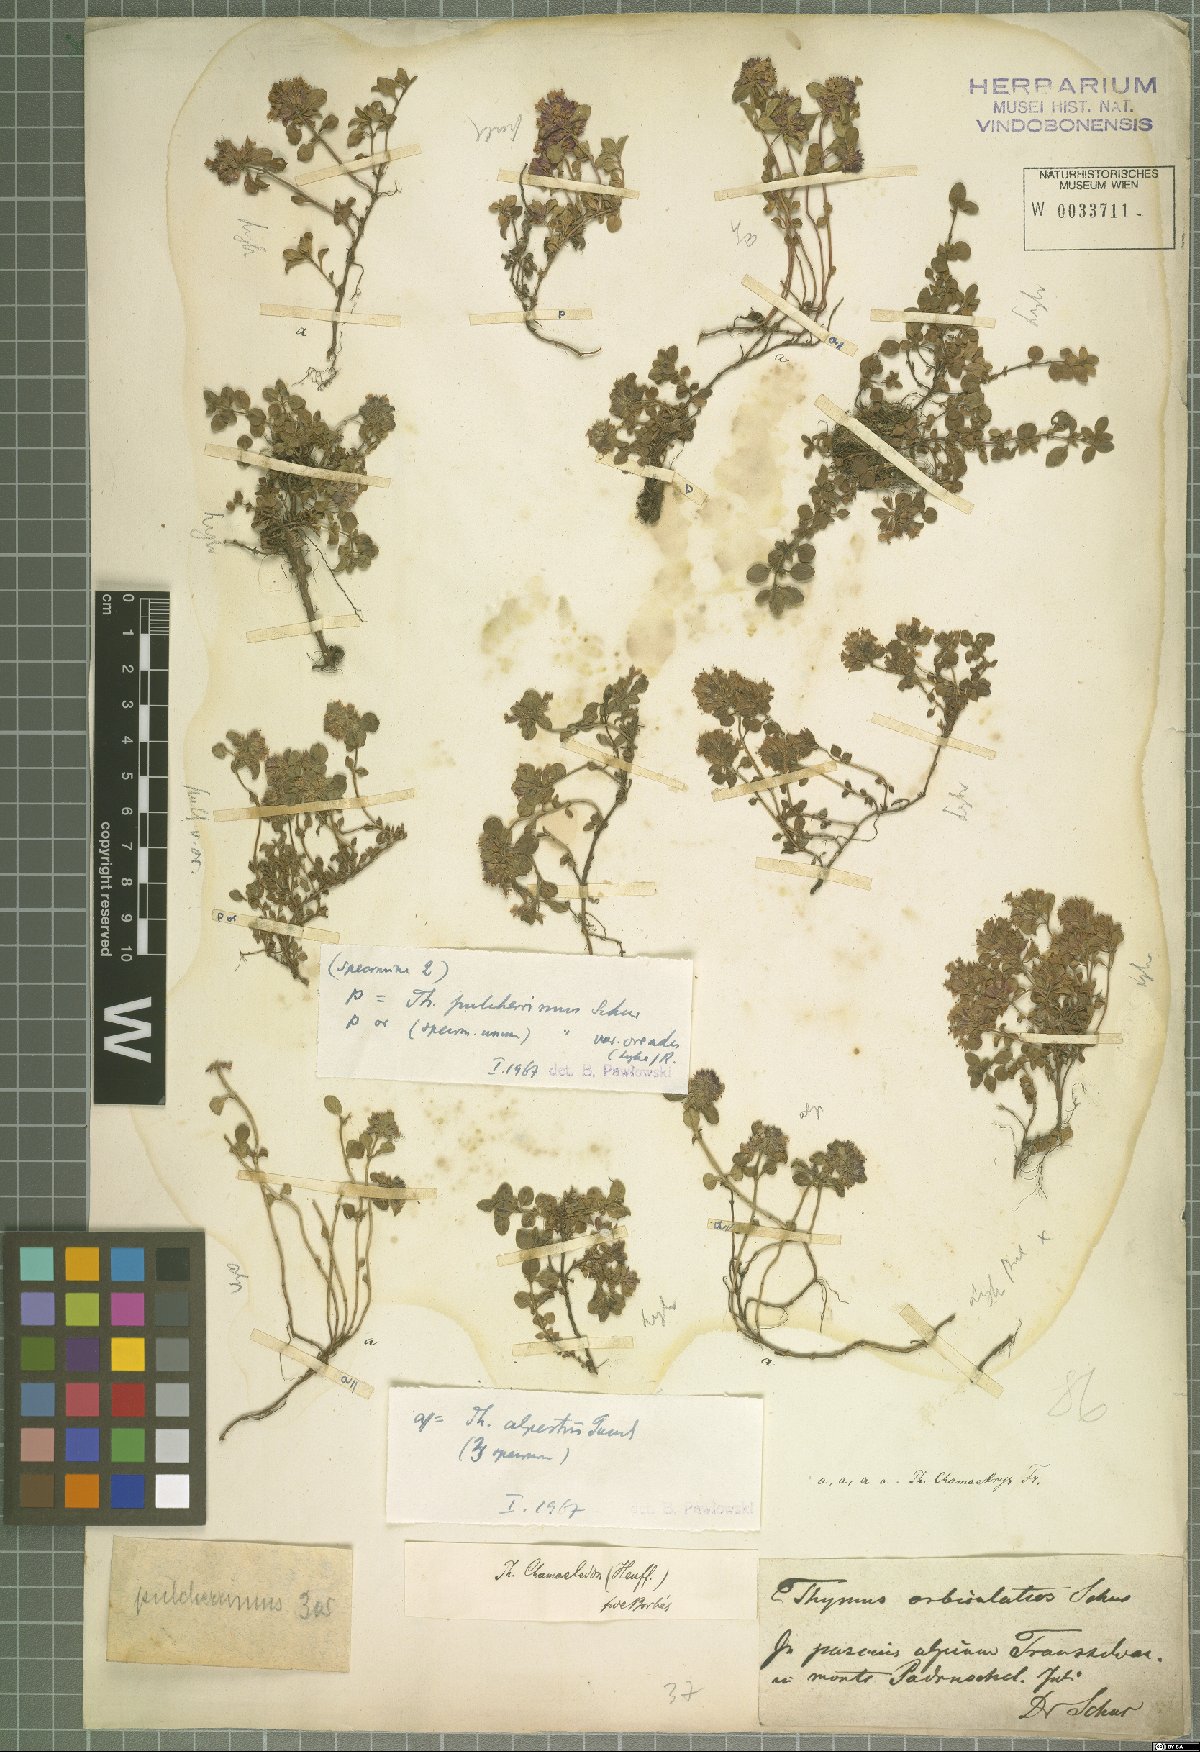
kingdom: Plantae
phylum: Tracheophyta
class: Magnoliopsida
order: Lamiales
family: Lamiaceae
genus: Thymus
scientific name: Thymus pulcherrimus
